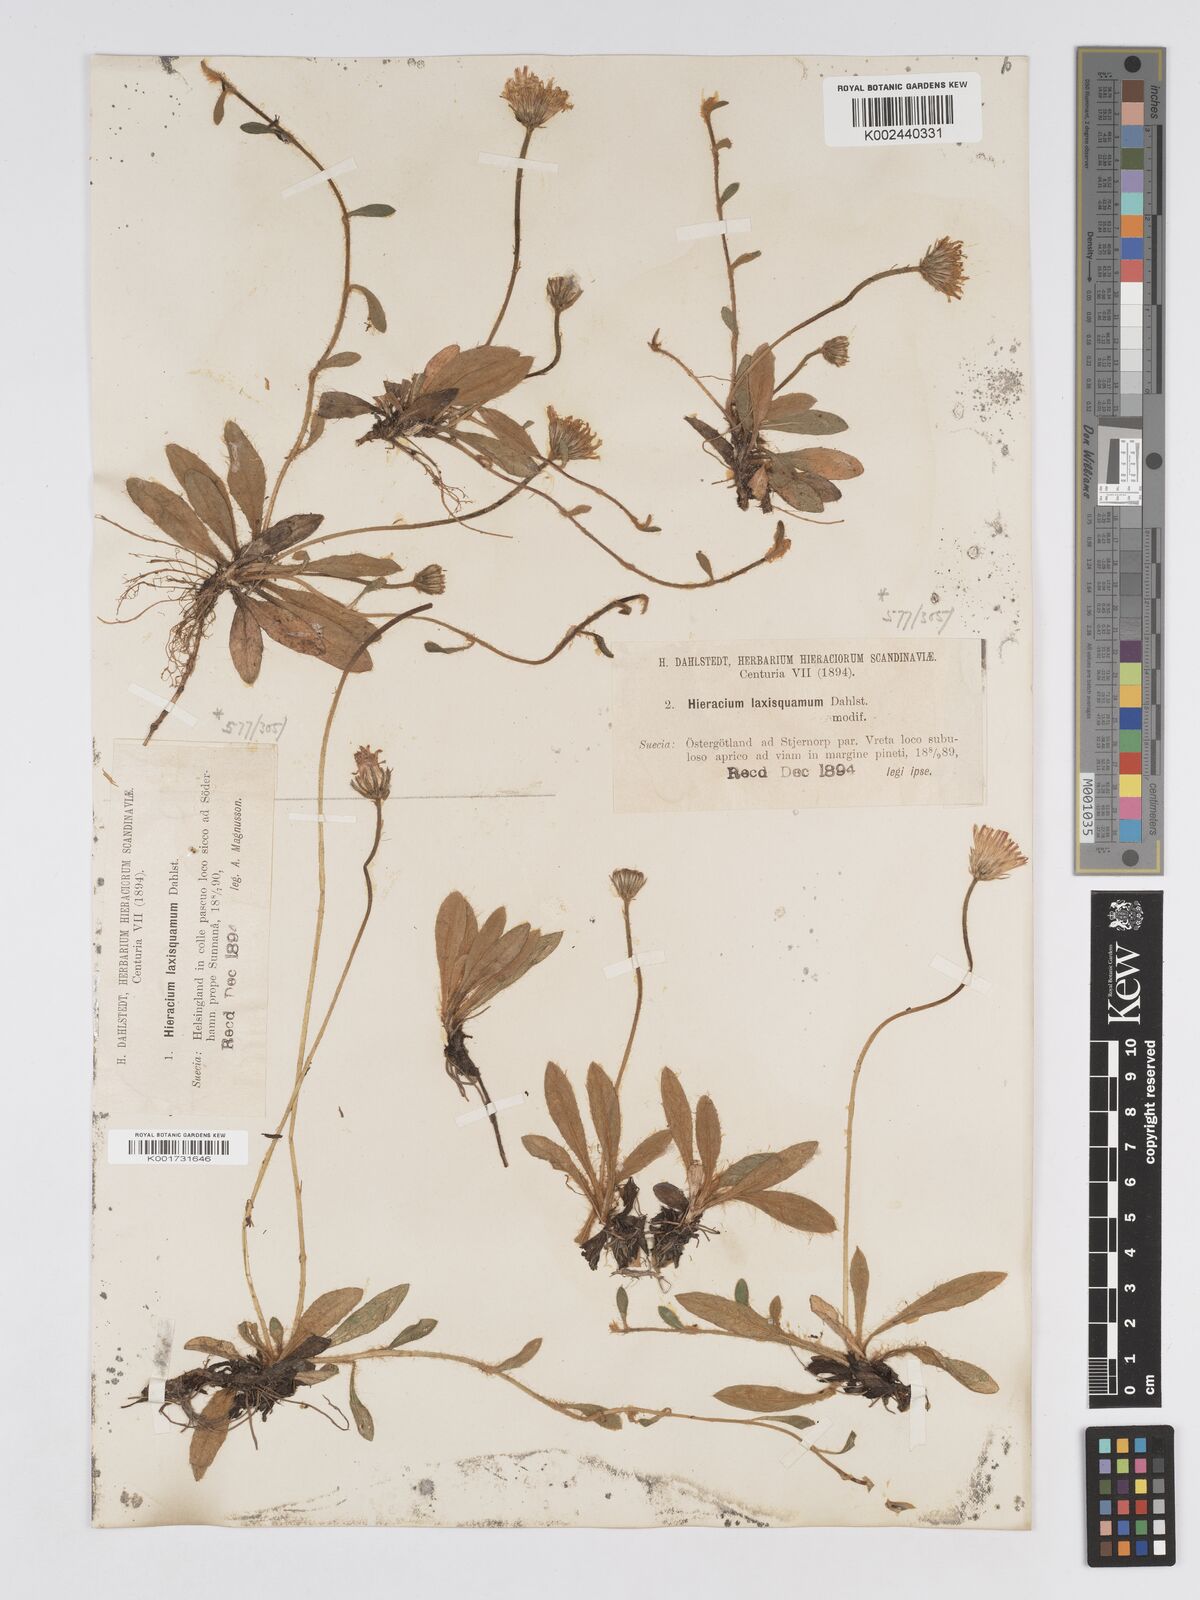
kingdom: Plantae
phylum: Tracheophyta
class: Magnoliopsida
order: Asterales
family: Asteraceae
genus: Pilosella
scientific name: Pilosella officinarum
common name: Mouse-ear hawkweed
